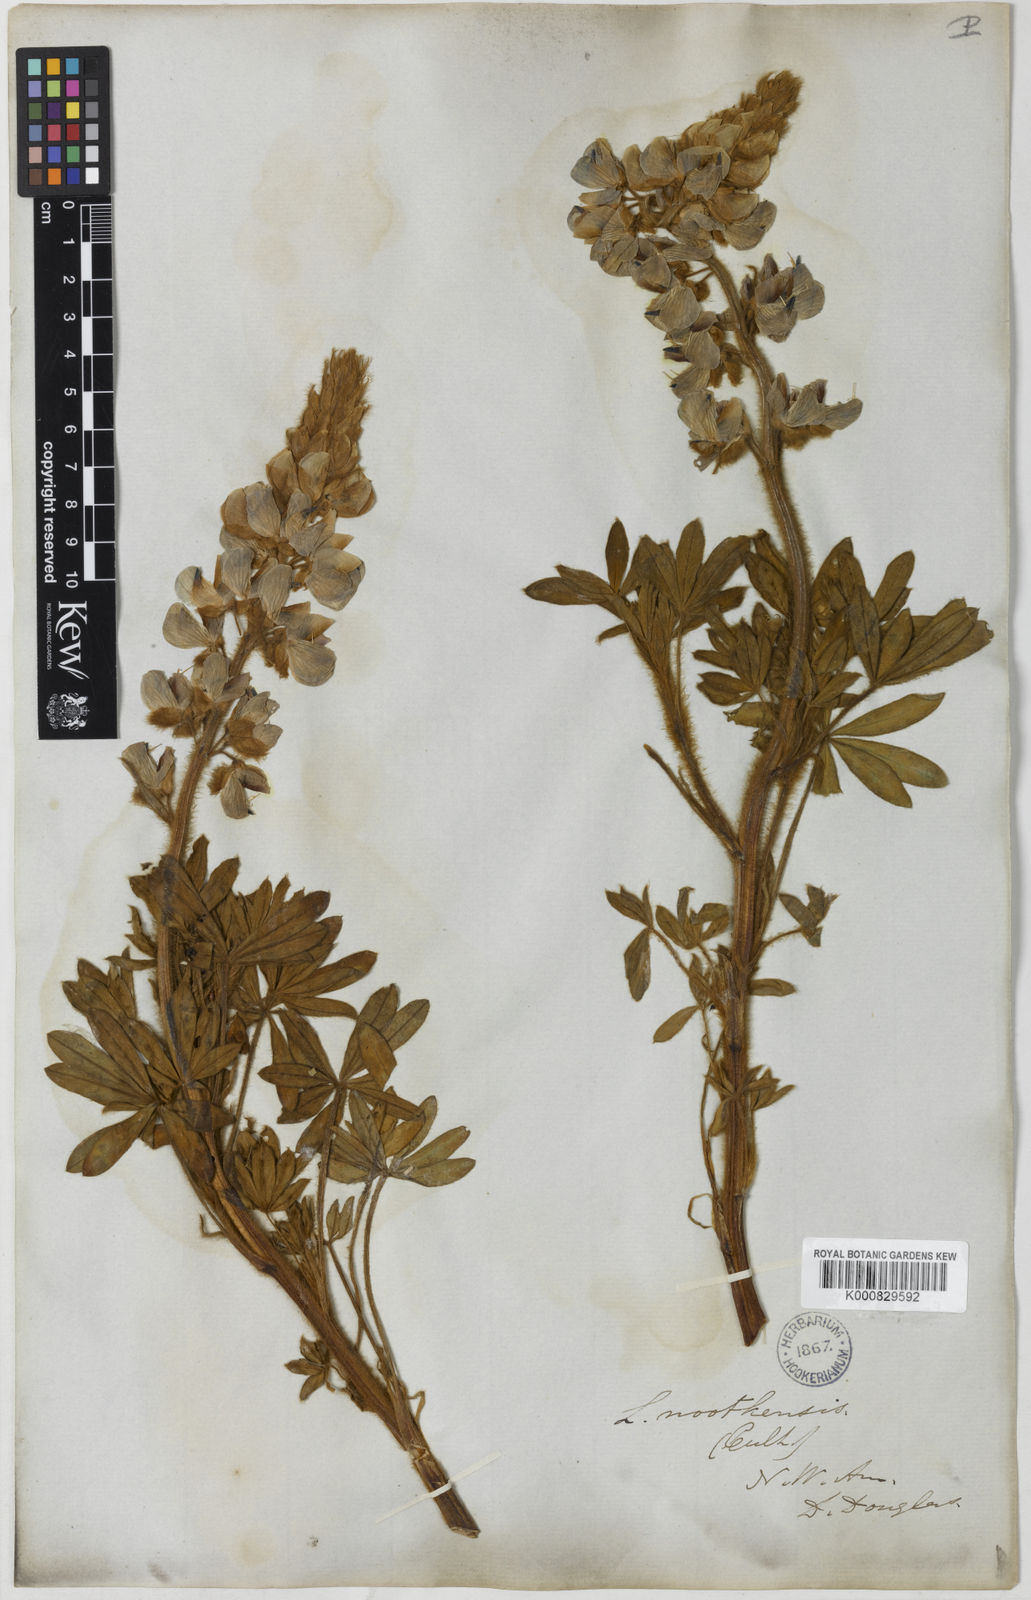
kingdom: Plantae
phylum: Tracheophyta
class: Magnoliopsida
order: Fabales
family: Fabaceae
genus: Lupinus
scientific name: Lupinus nootkatensis
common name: Nootka lupine
